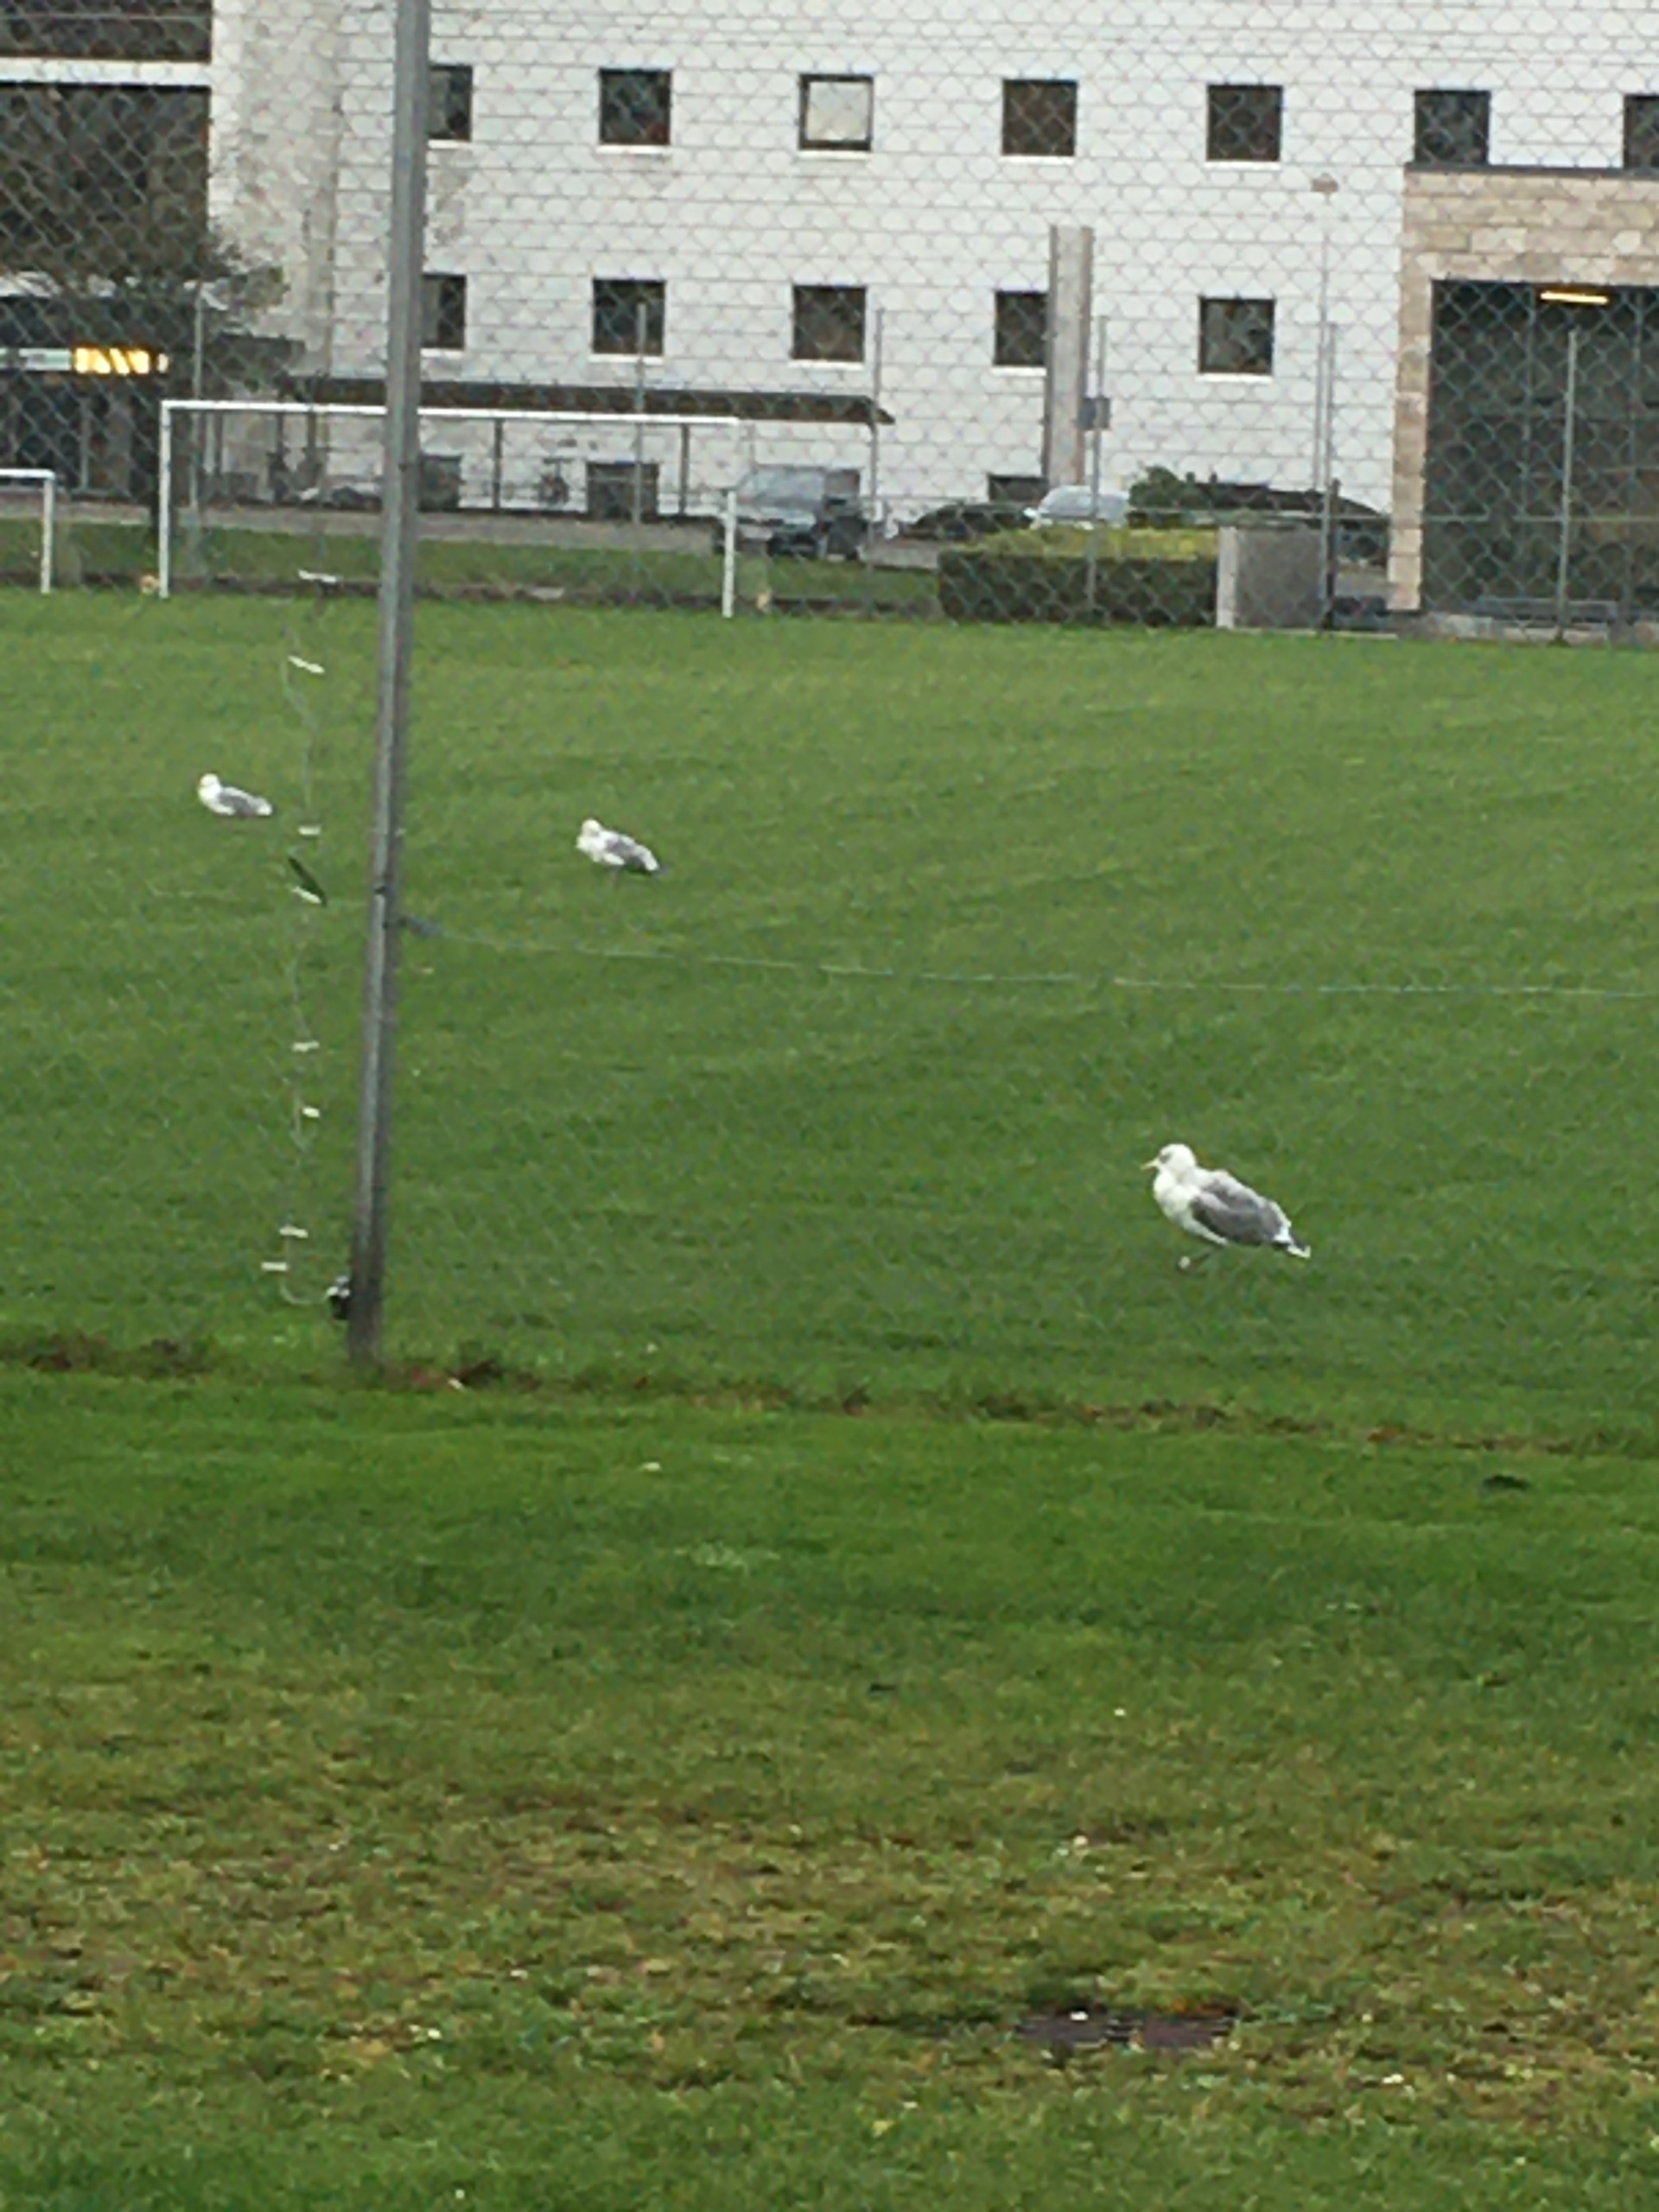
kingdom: Animalia
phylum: Chordata
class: Aves
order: Charadriiformes
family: Laridae
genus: Larus
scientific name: Larus argentatus
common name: Sølvmåge
